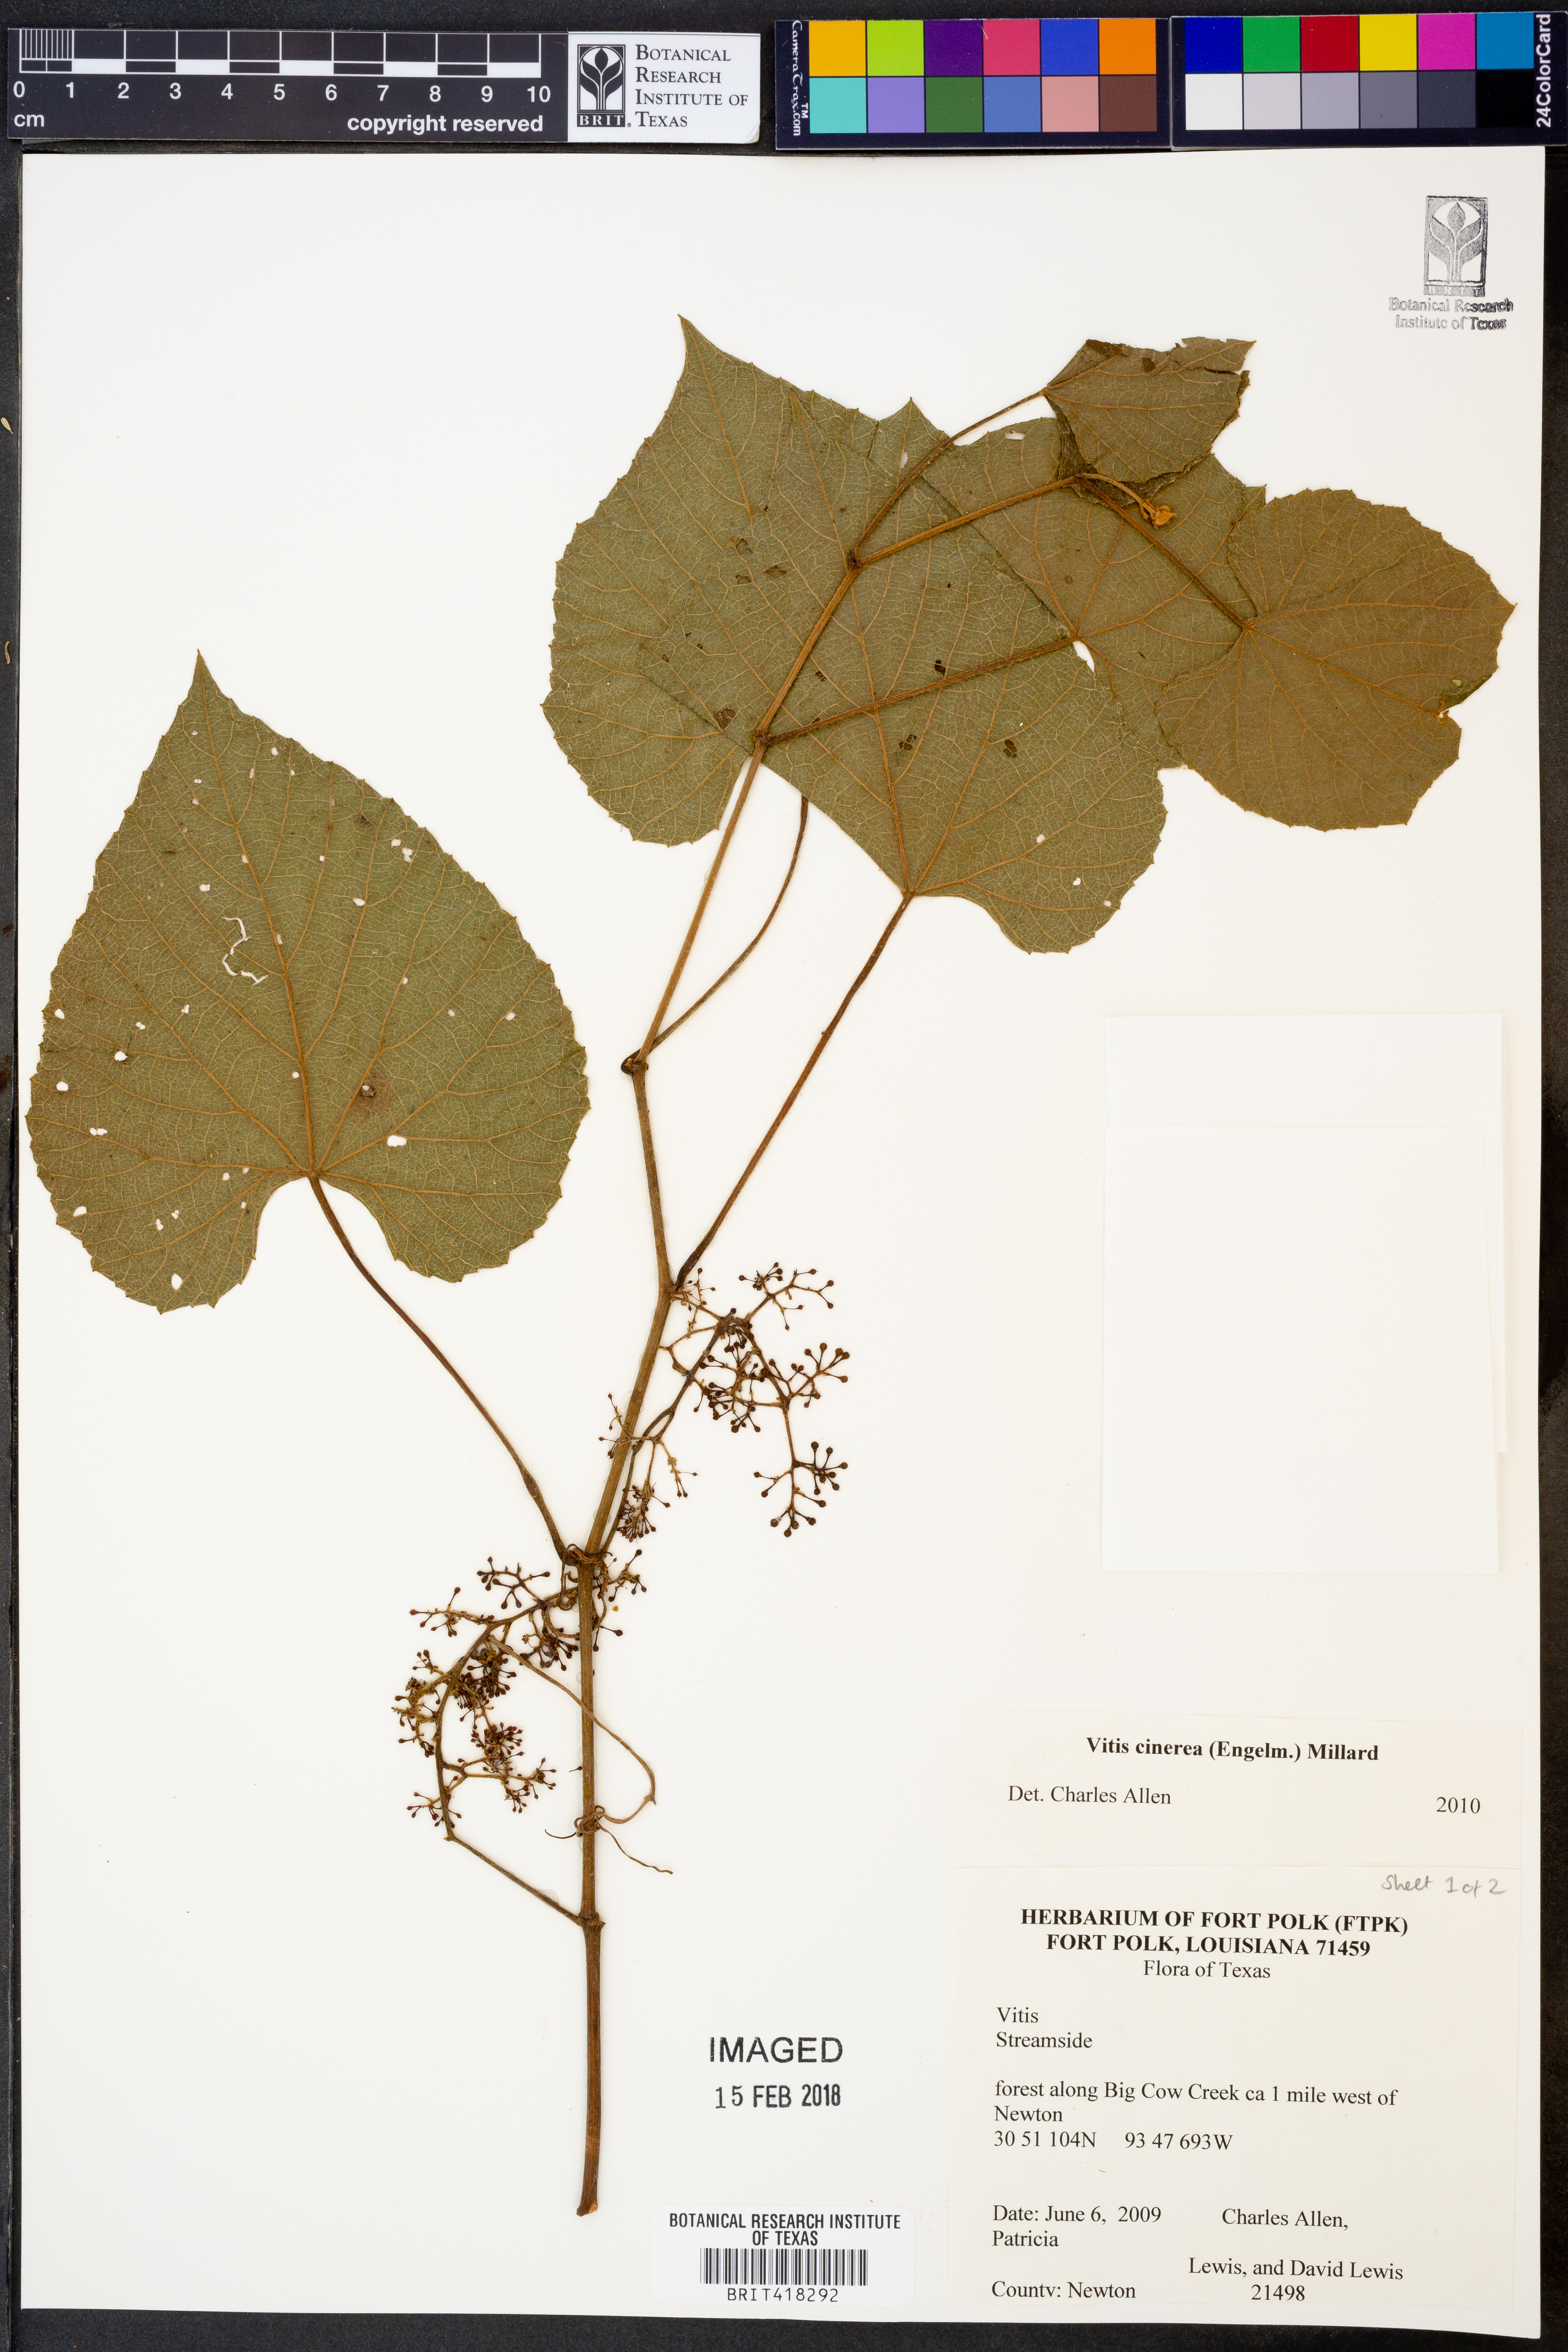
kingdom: Plantae
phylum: Tracheophyta
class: Magnoliopsida
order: Vitales
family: Vitaceae
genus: Vitis
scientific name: Vitis cinerea
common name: Ashy grape
